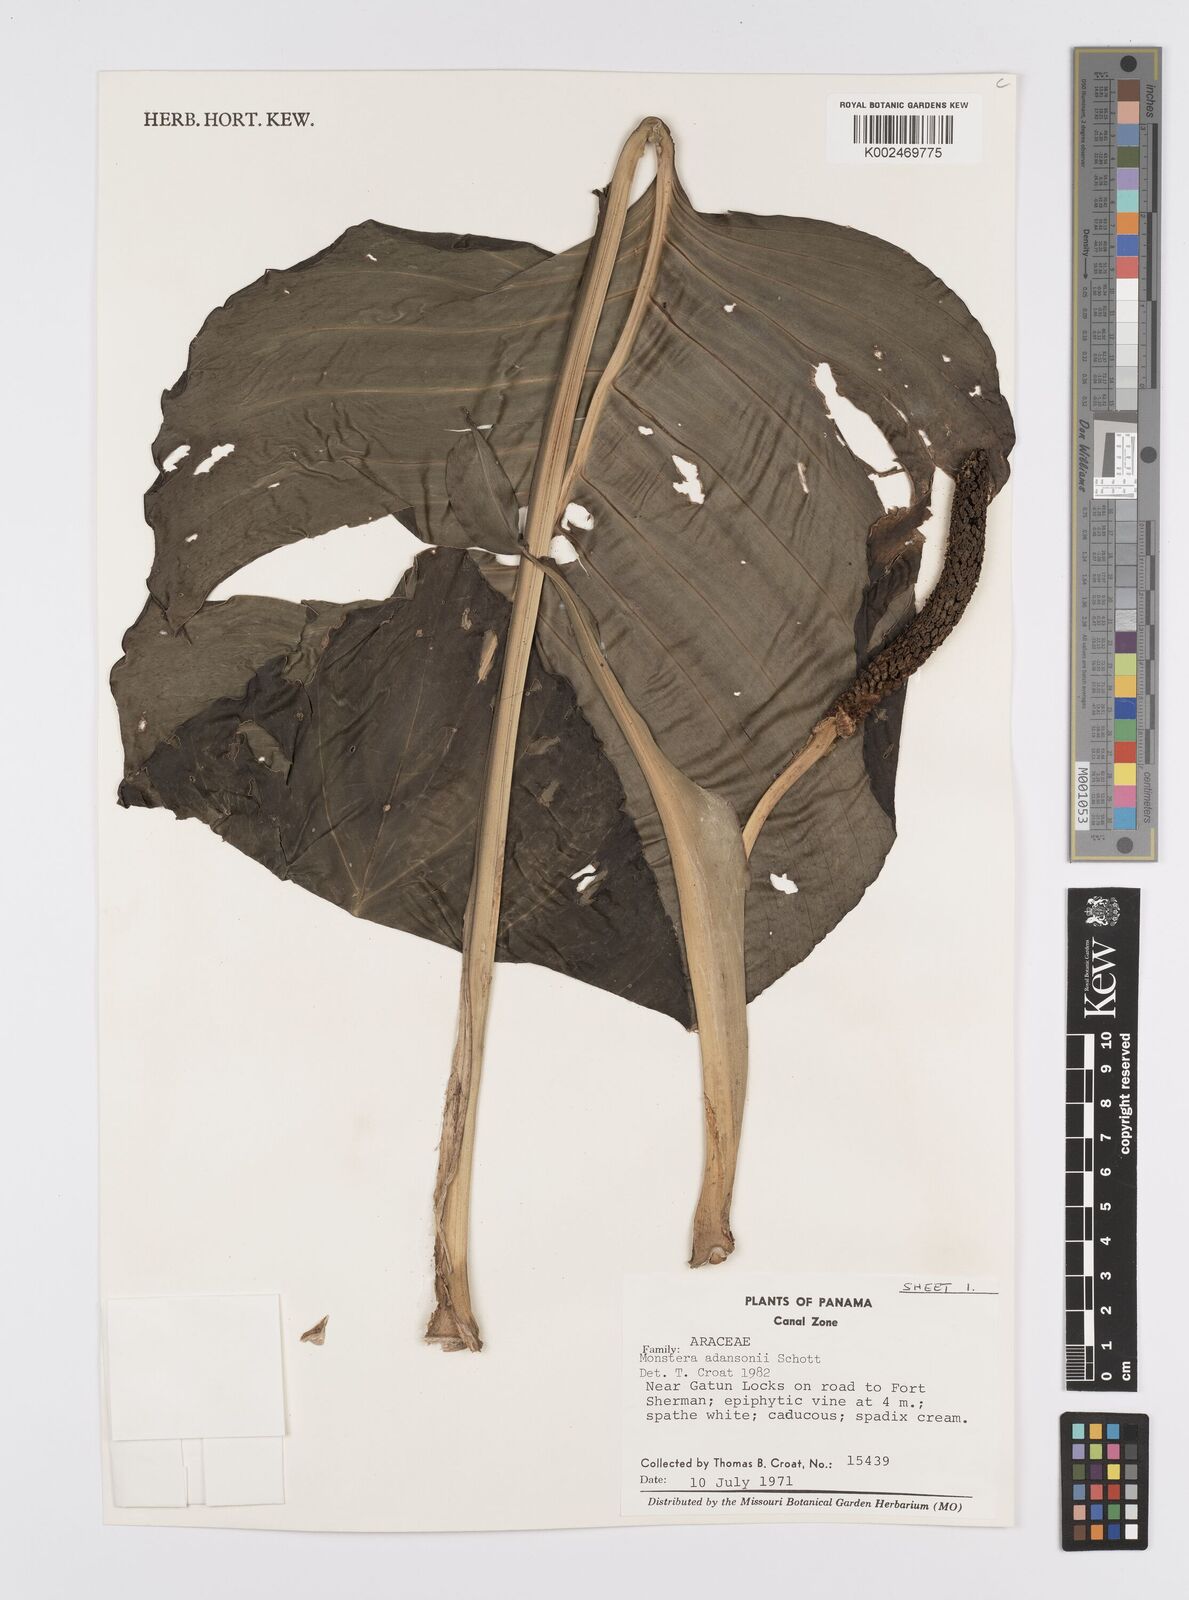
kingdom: Plantae
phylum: Tracheophyta
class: Liliopsida
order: Alismatales
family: Araceae
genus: Monstera
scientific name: Monstera adansonii
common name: Tarovine
